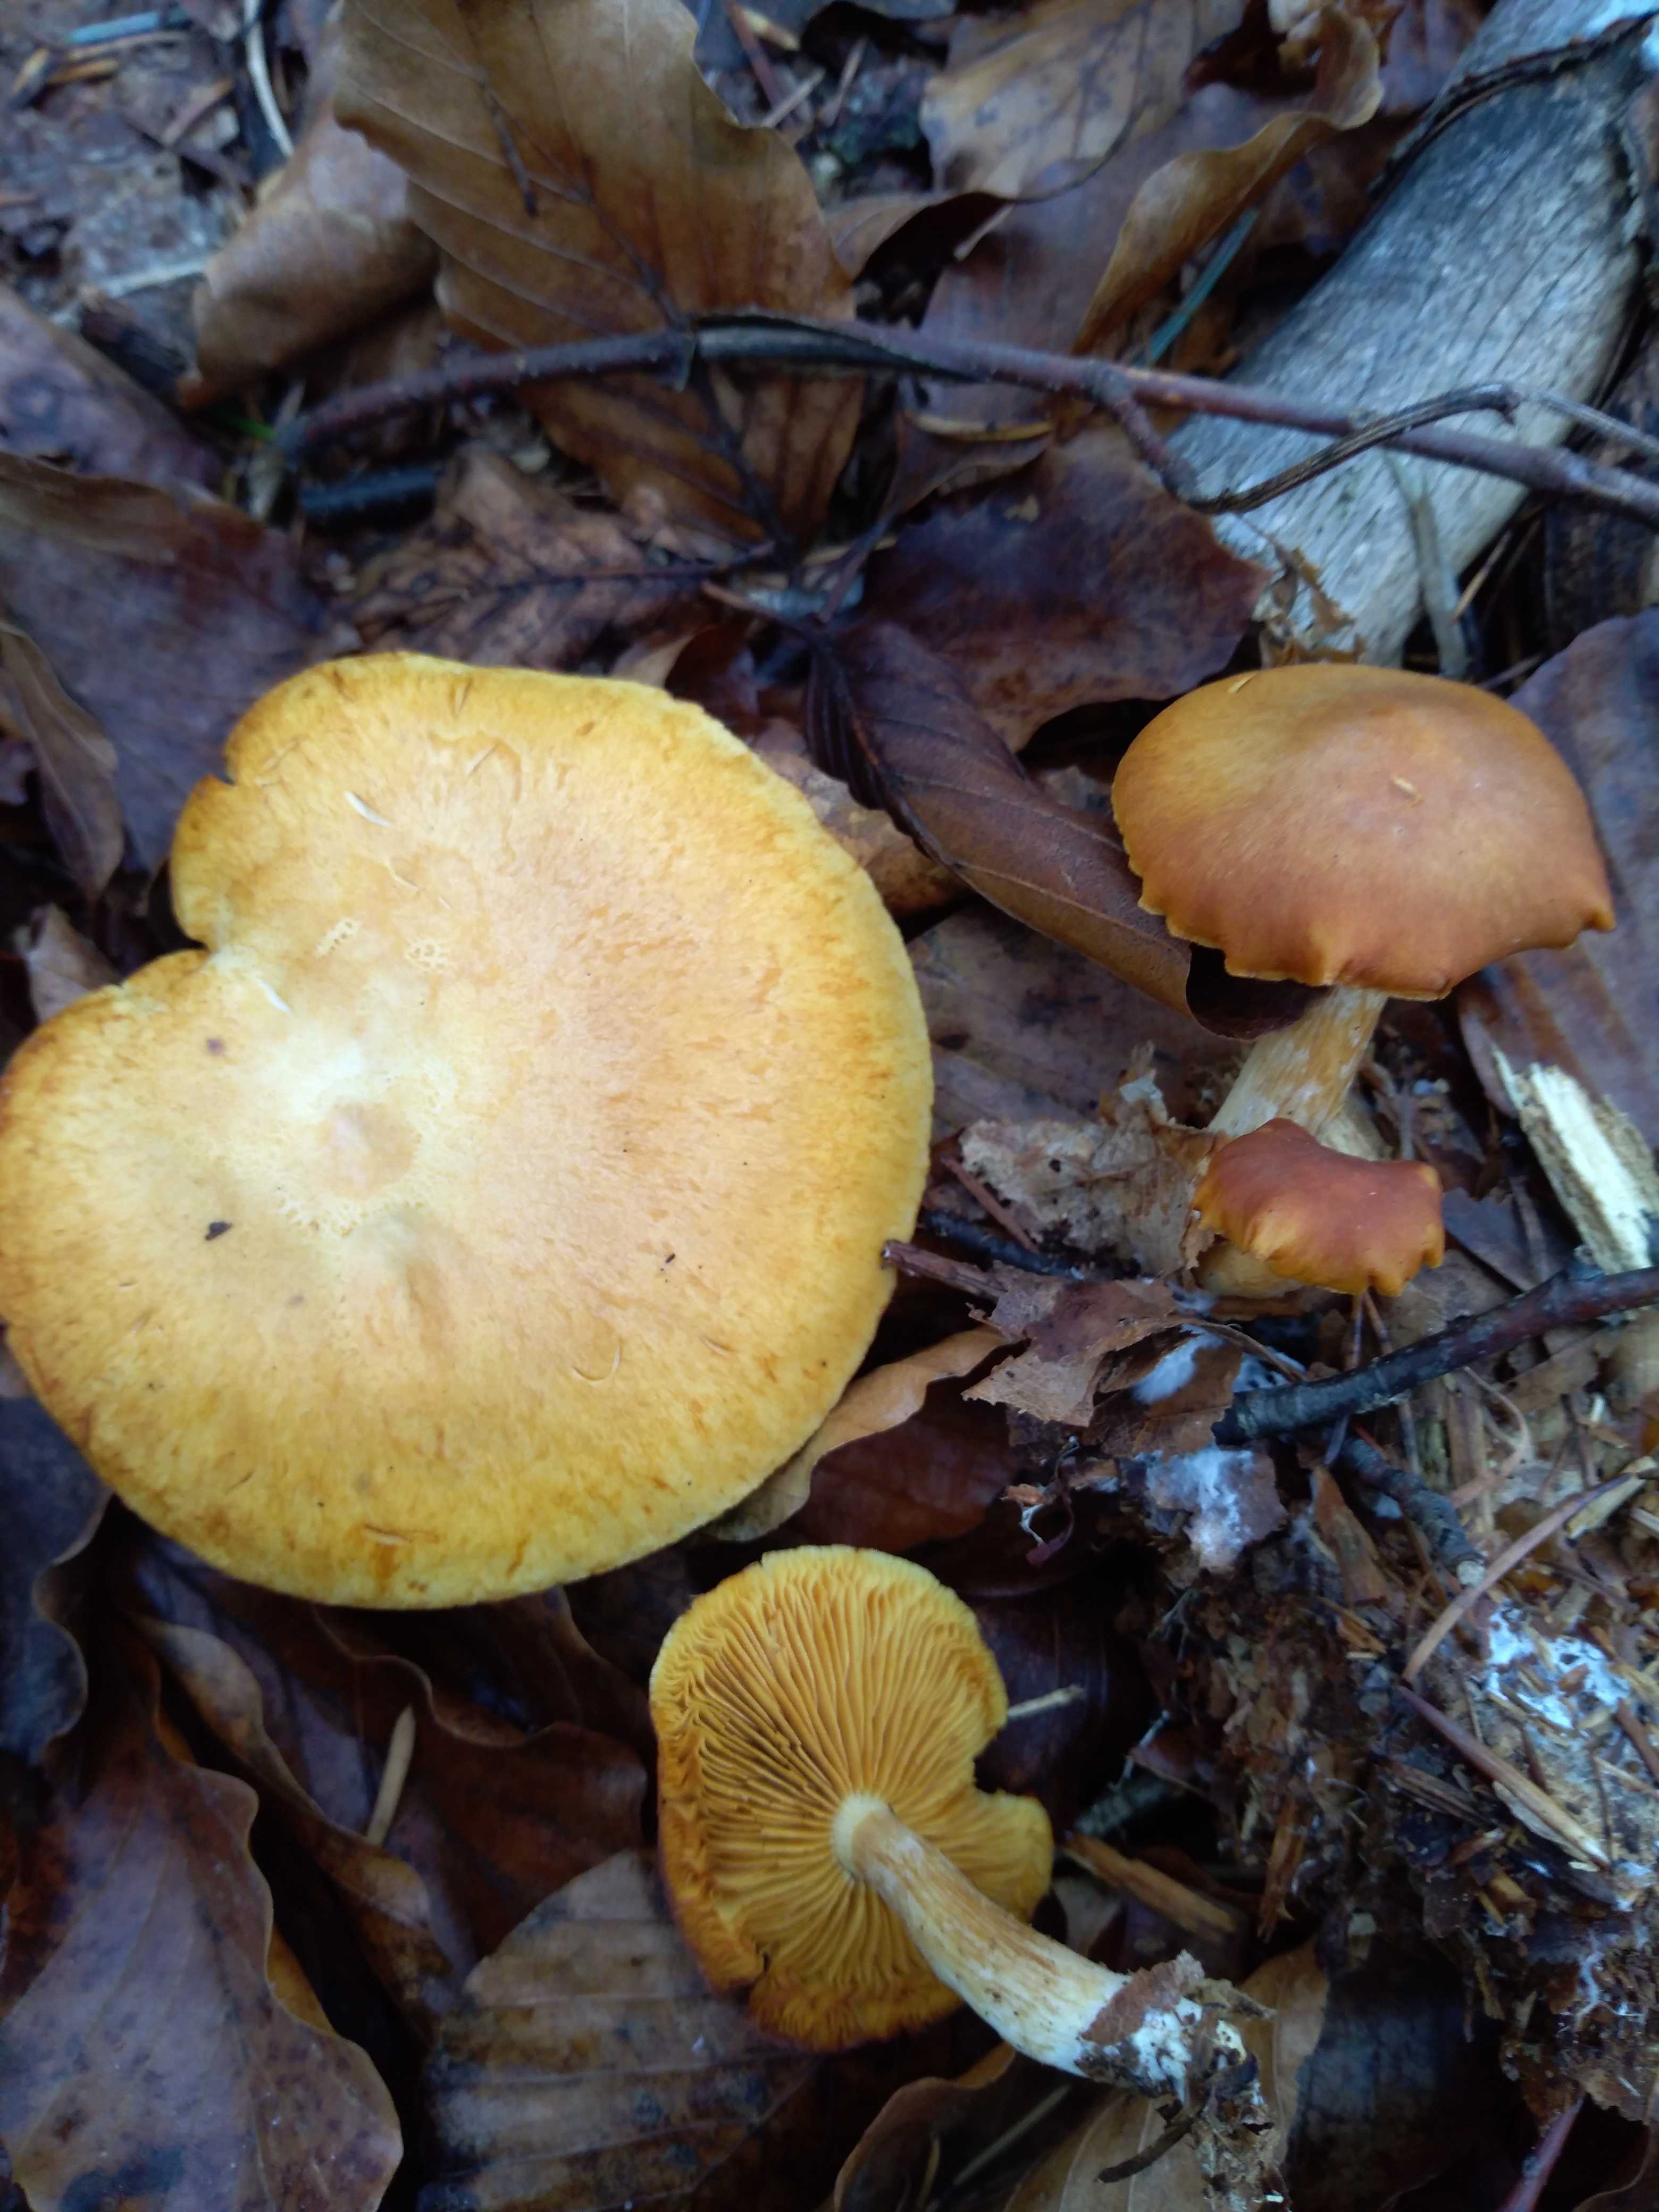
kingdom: Fungi
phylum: Basidiomycota
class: Agaricomycetes
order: Agaricales
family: Hymenogastraceae
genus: Gymnopilus
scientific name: Gymnopilus penetrans
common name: plettet flammehat
